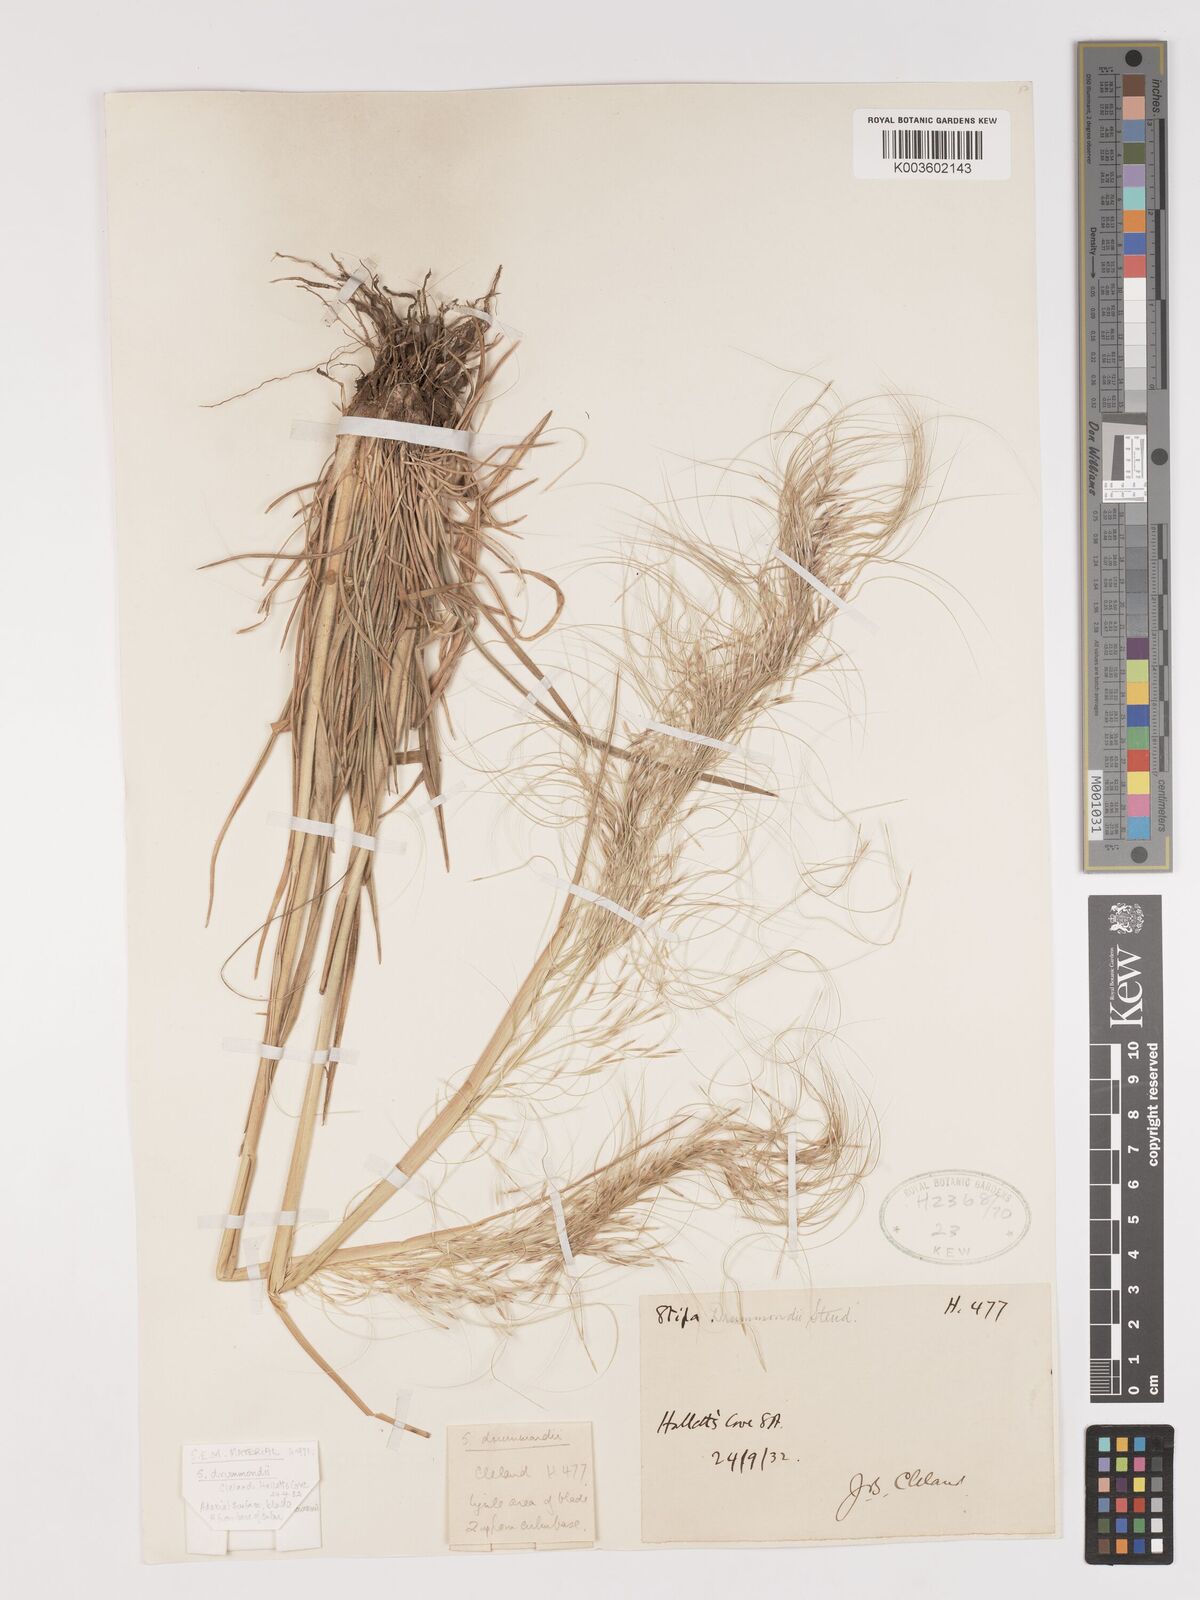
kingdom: Plantae
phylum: Tracheophyta
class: Liliopsida
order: Poales
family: Poaceae
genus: Austrostipa
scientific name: Austrostipa drummondii
